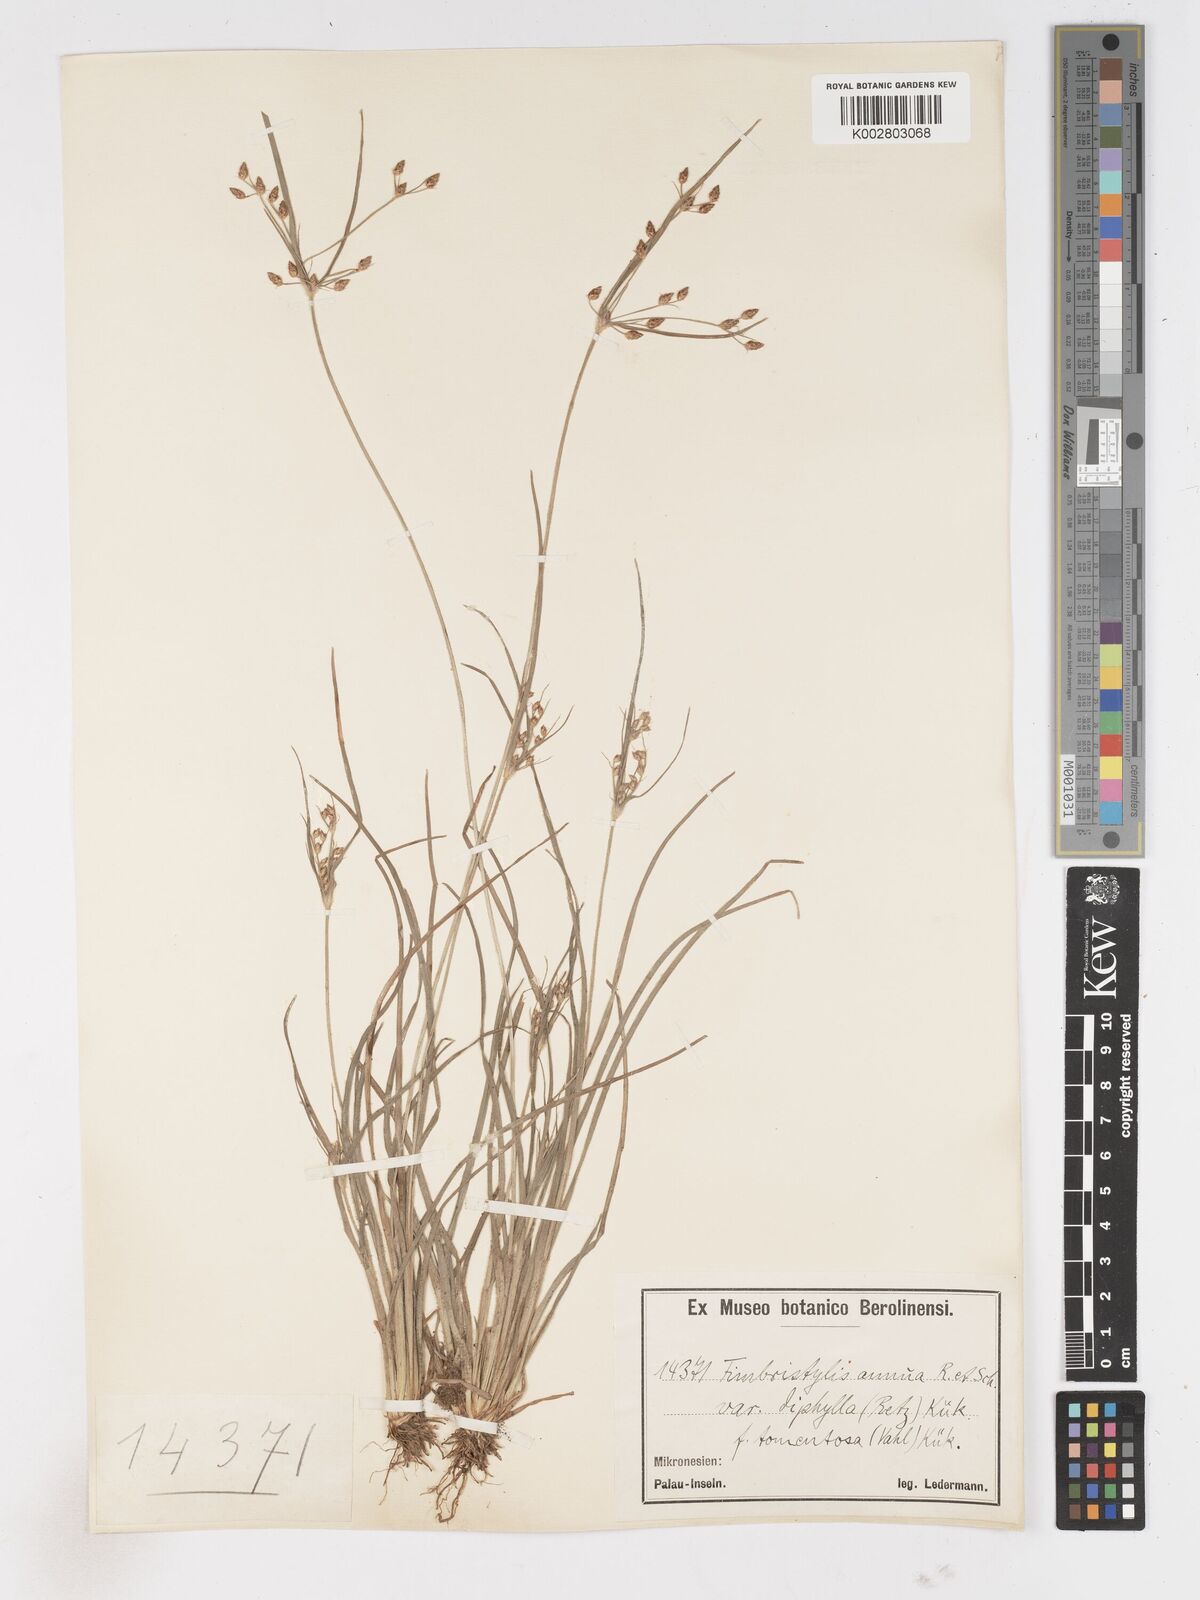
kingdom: Plantae
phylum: Tracheophyta
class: Liliopsida
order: Poales
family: Cyperaceae
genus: Fimbristylis
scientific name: Fimbristylis dichotoma
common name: Forked fimbry
